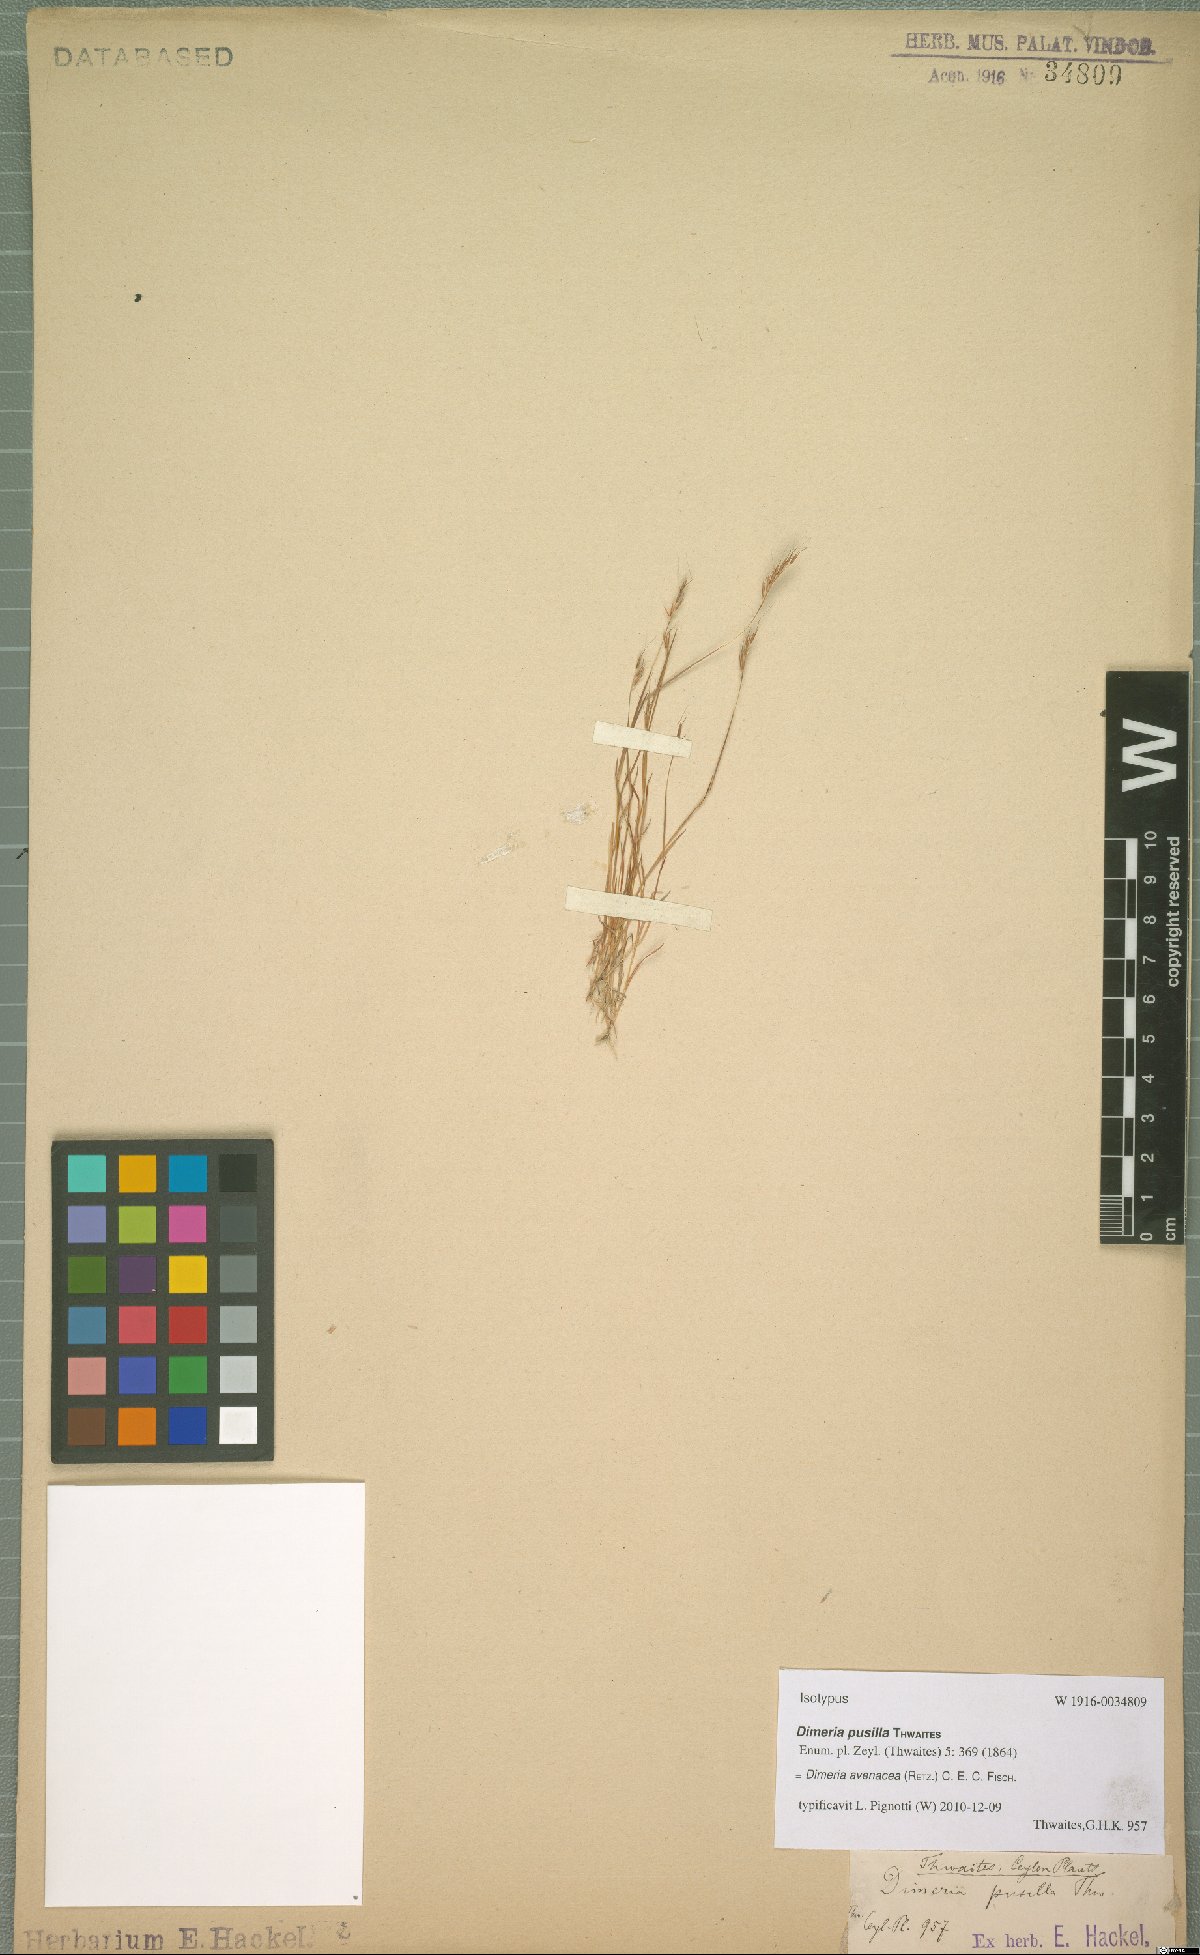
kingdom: Plantae
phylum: Tracheophyta
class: Liliopsida
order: Poales
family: Poaceae
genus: Dimeria
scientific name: Dimeria avenacea
